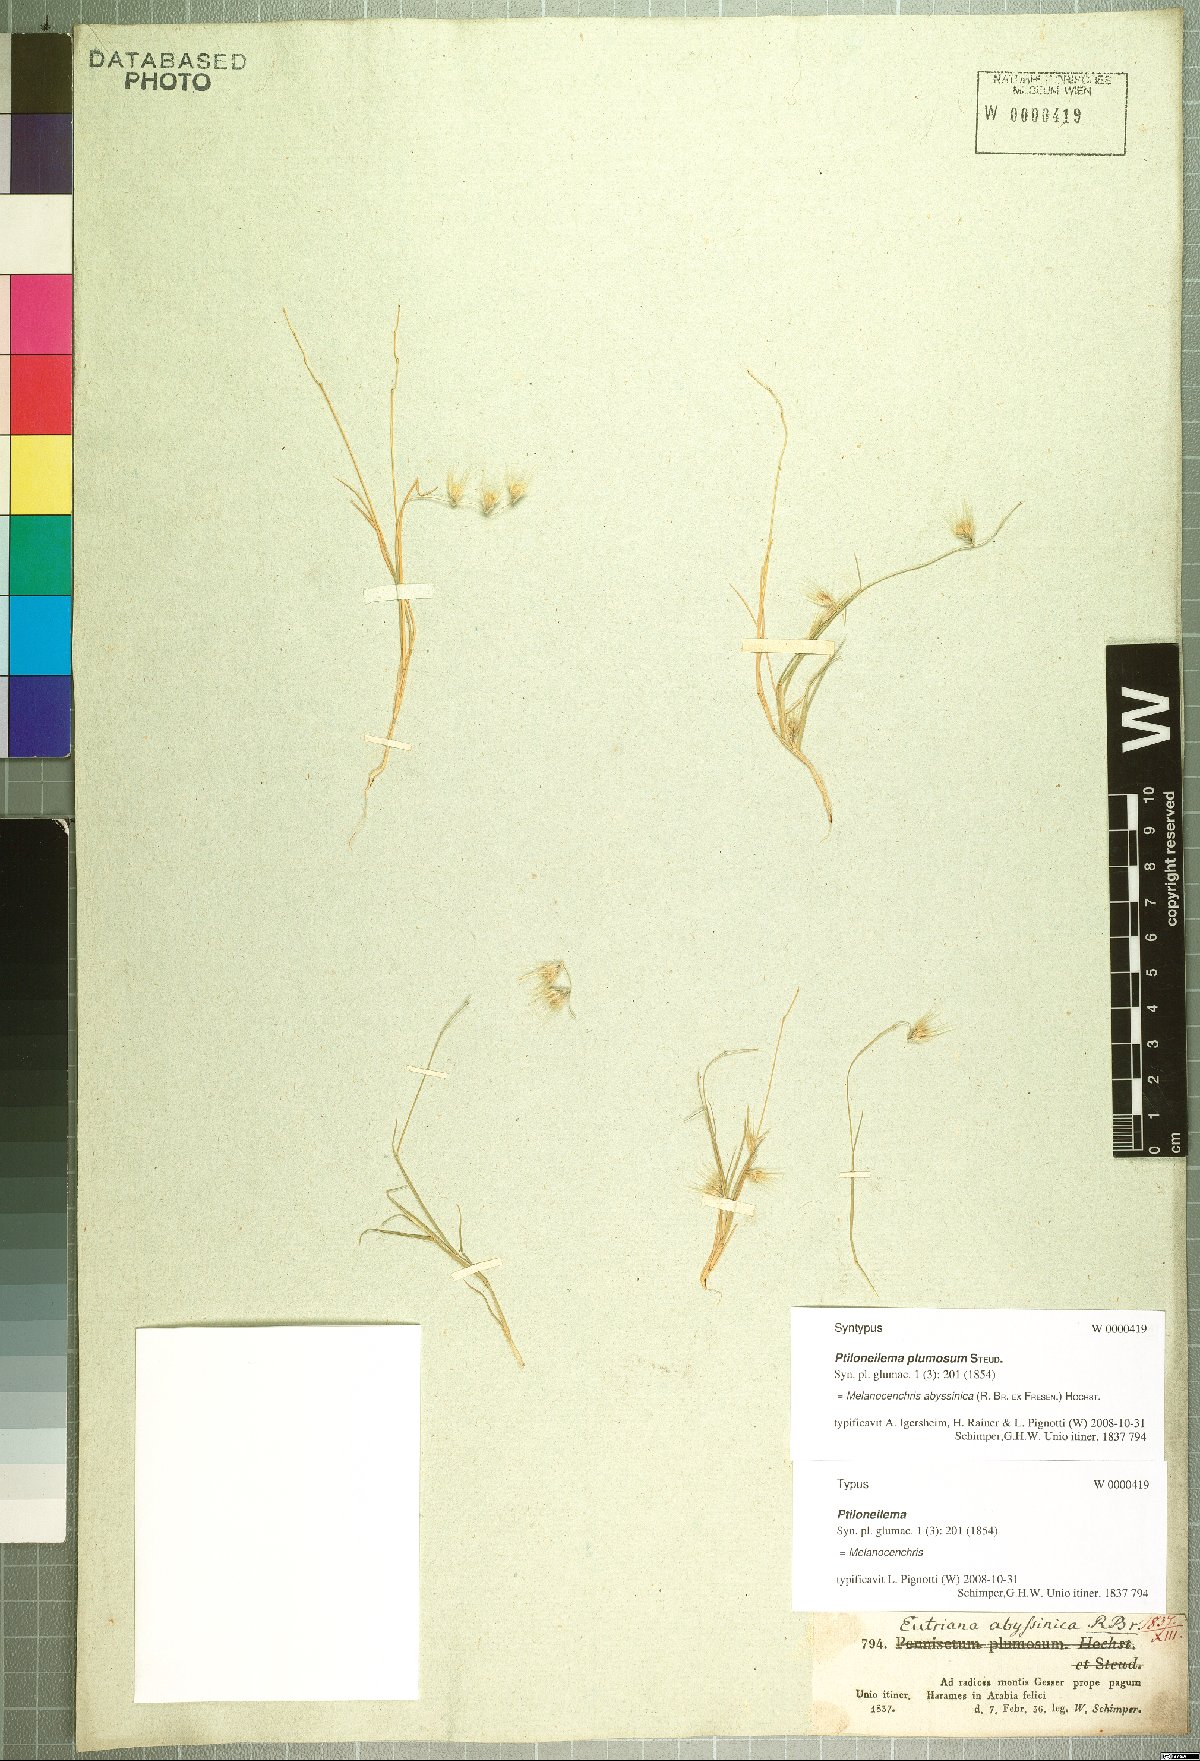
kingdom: Plantae
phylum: Tracheophyta
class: Liliopsida
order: Poales
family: Poaceae
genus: Melanocenchris
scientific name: Melanocenchris abyssinica
